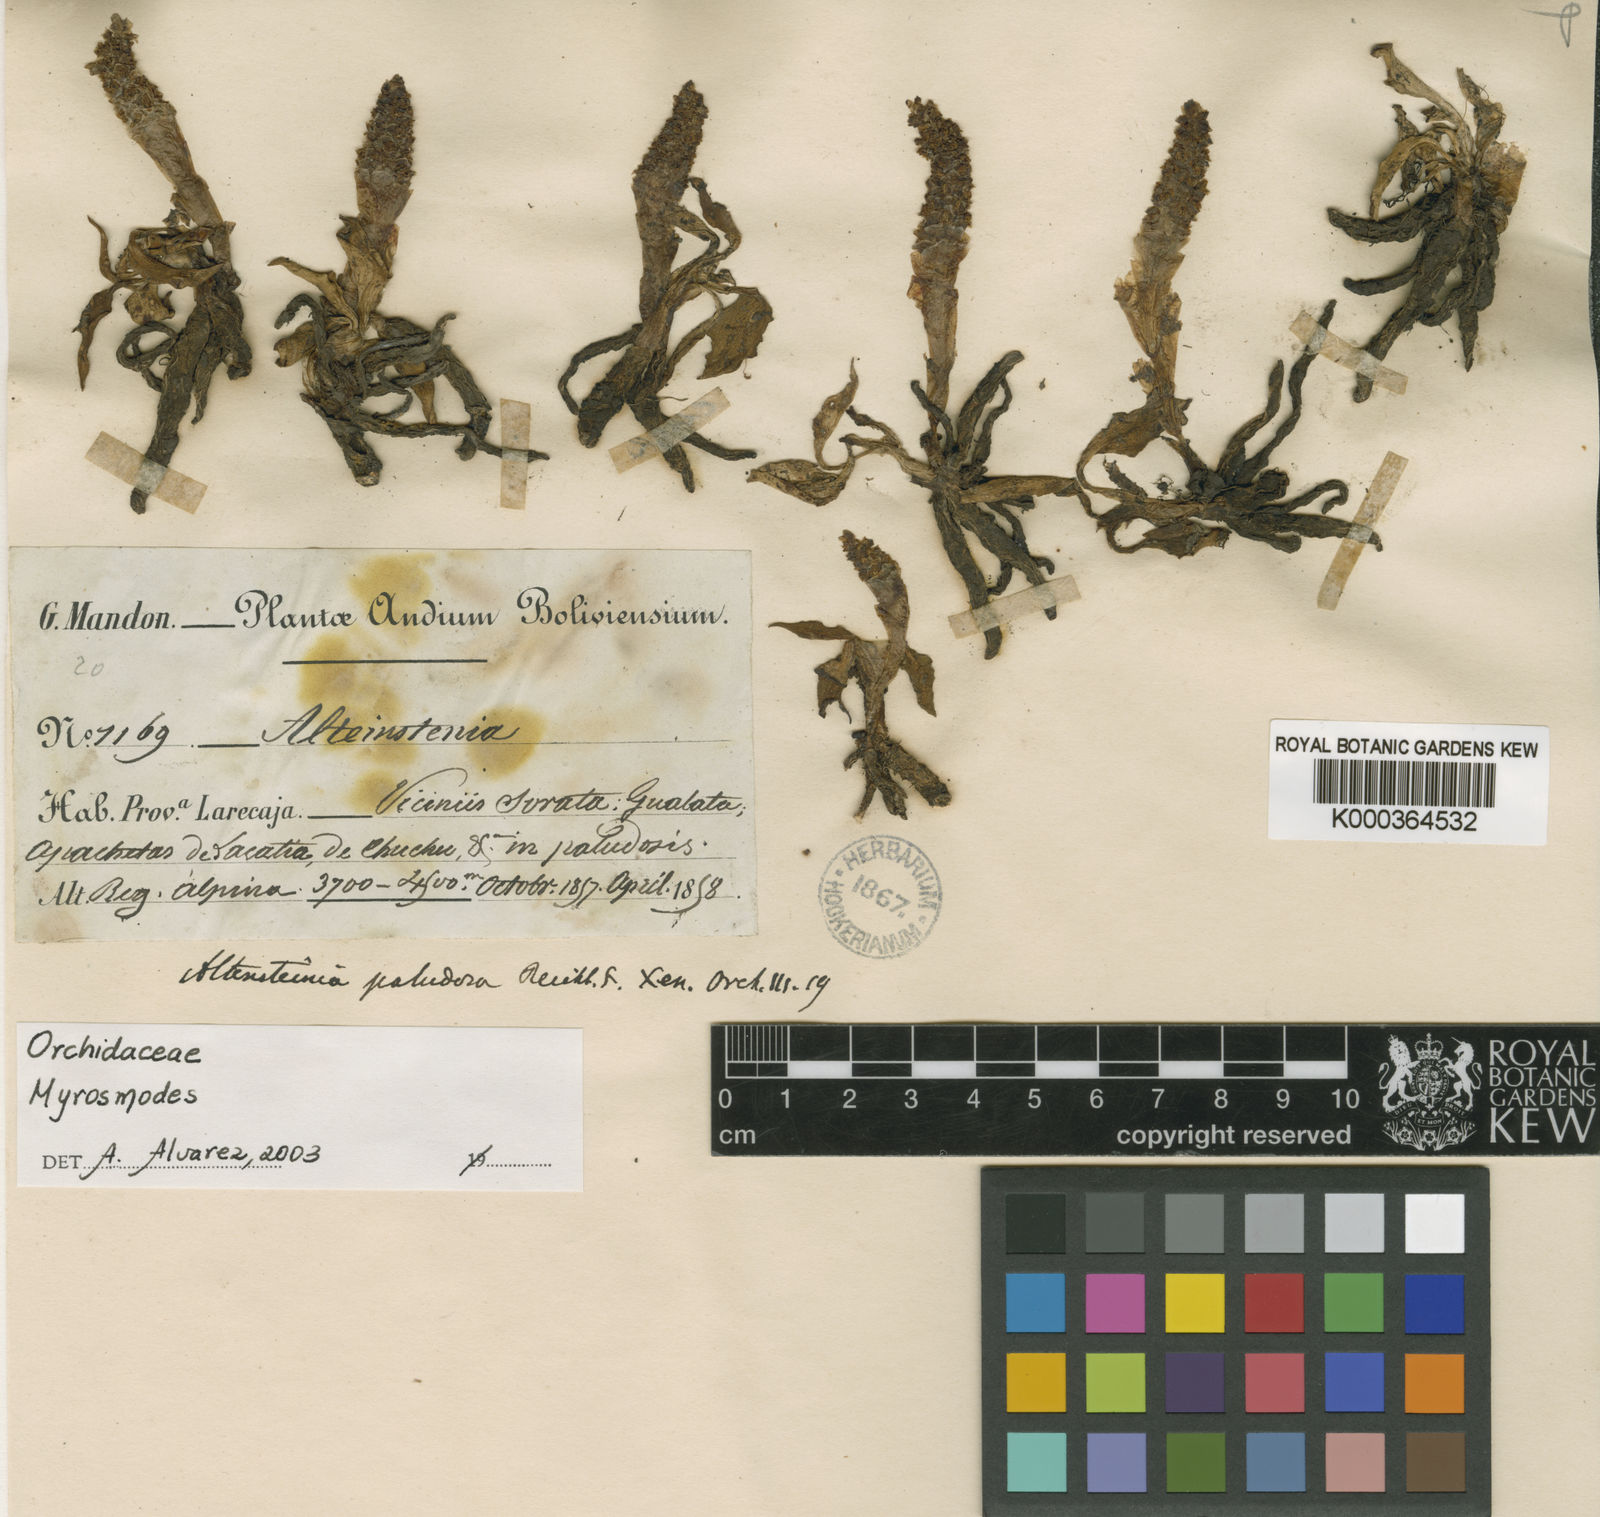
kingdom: Plantae
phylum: Tracheophyta
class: Liliopsida
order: Asparagales
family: Orchidaceae
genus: Myrosmodes
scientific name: Myrosmodes paludosa
